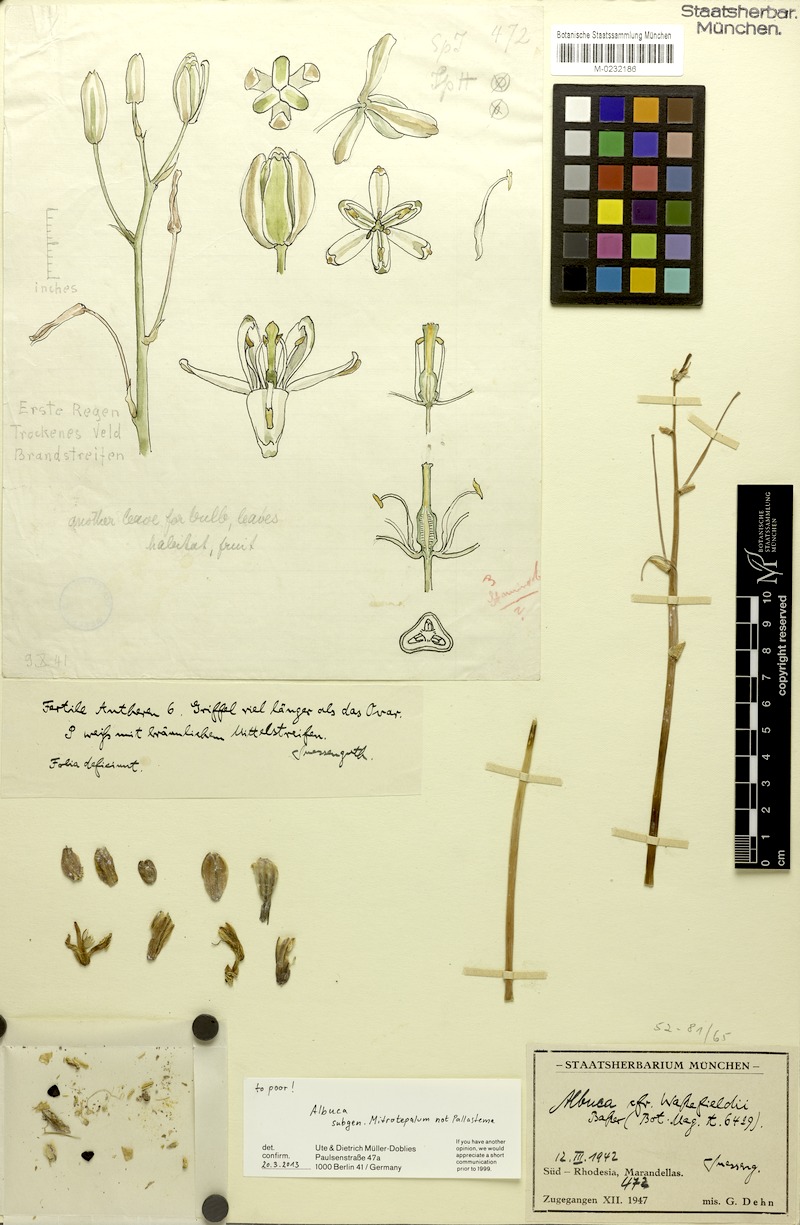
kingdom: Plantae
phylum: Tracheophyta
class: Liliopsida
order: Asparagales
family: Asparagaceae
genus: Albuca
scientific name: Albuca
